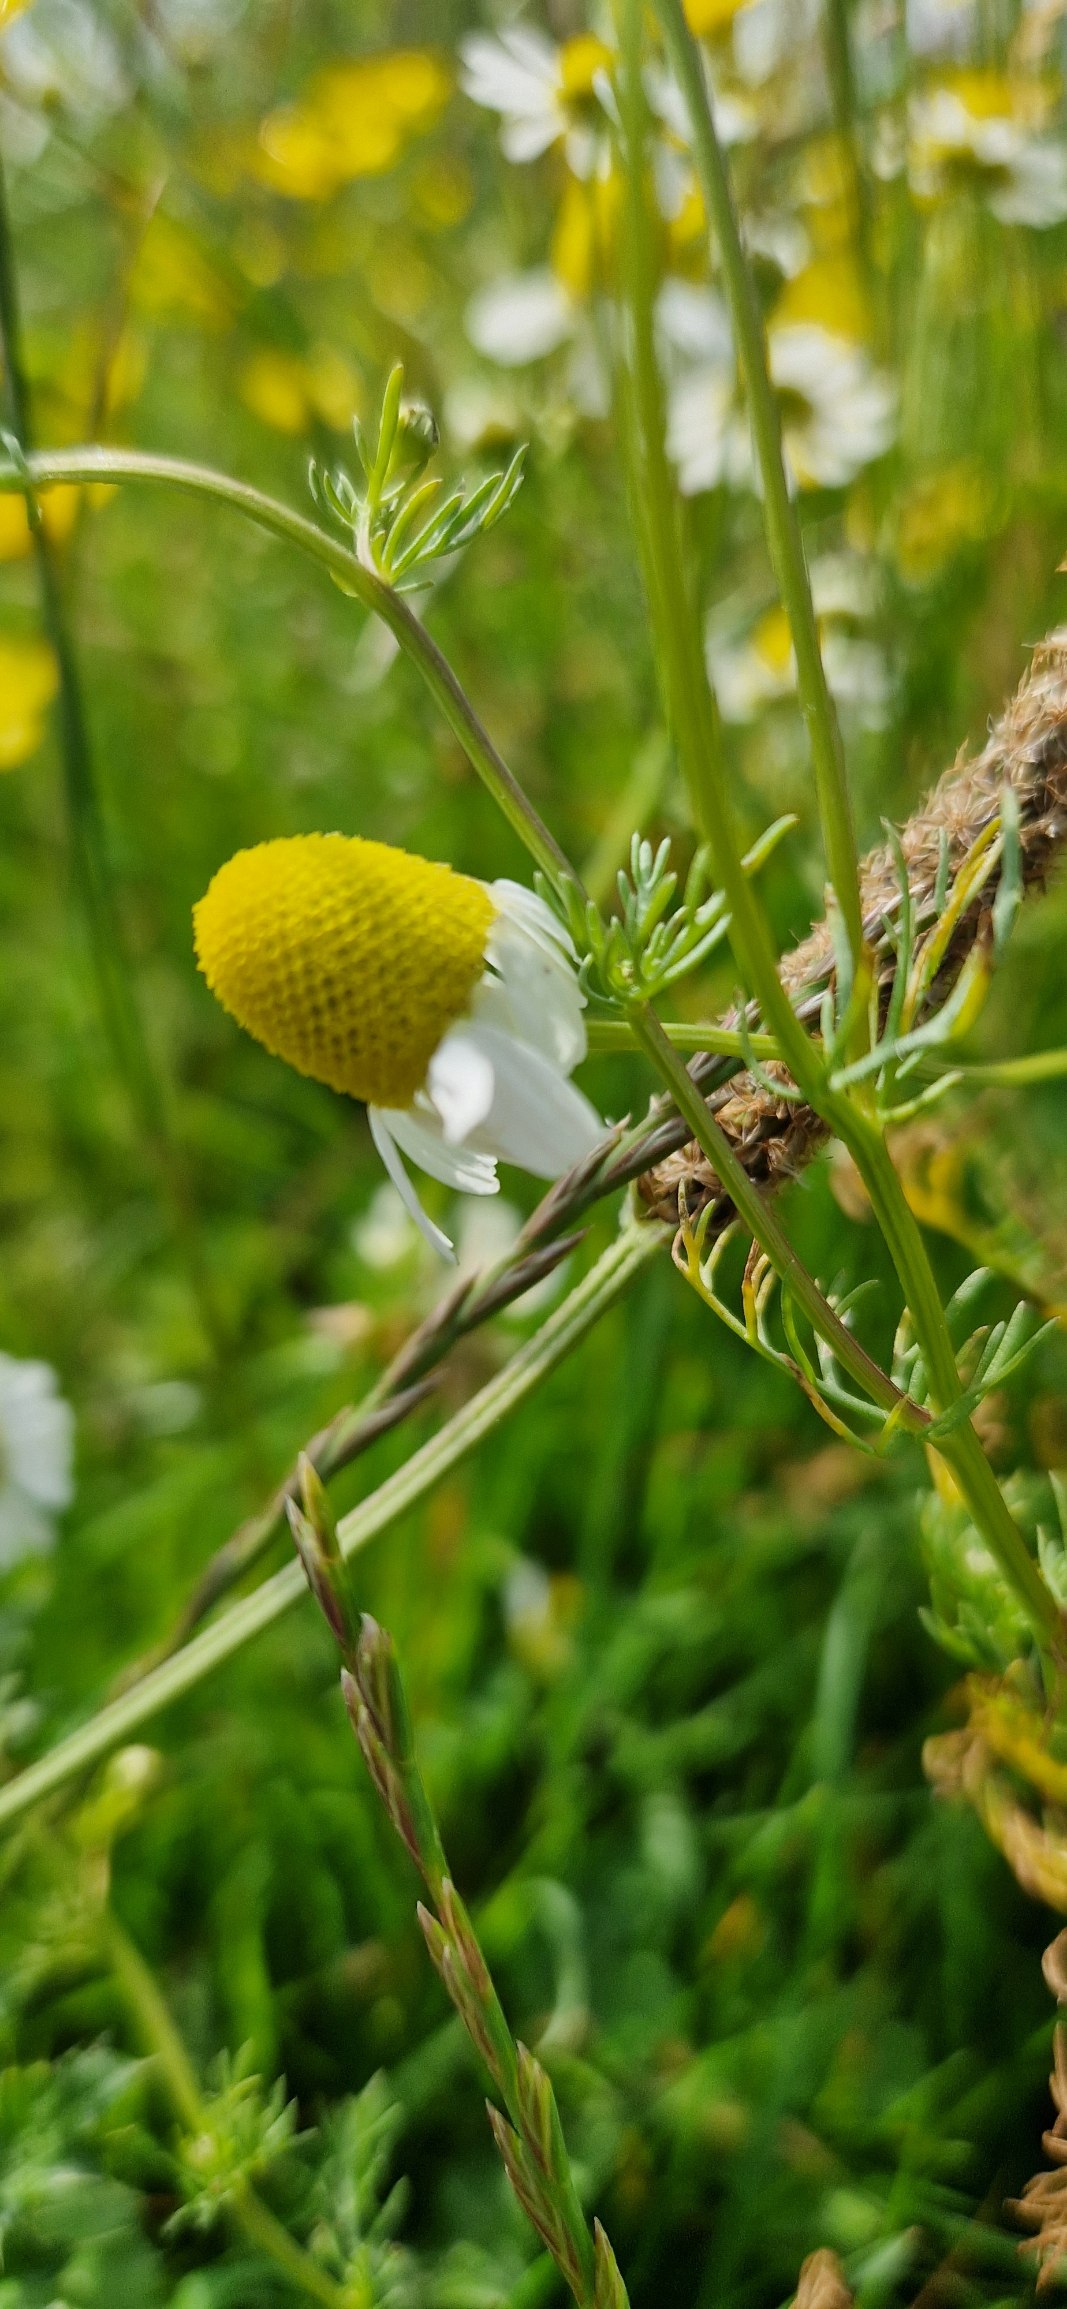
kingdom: Plantae
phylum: Tracheophyta
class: Magnoliopsida
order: Asterales
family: Asteraceae
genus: Matricaria
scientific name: Matricaria chamomilla
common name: Vellugtende kamille
